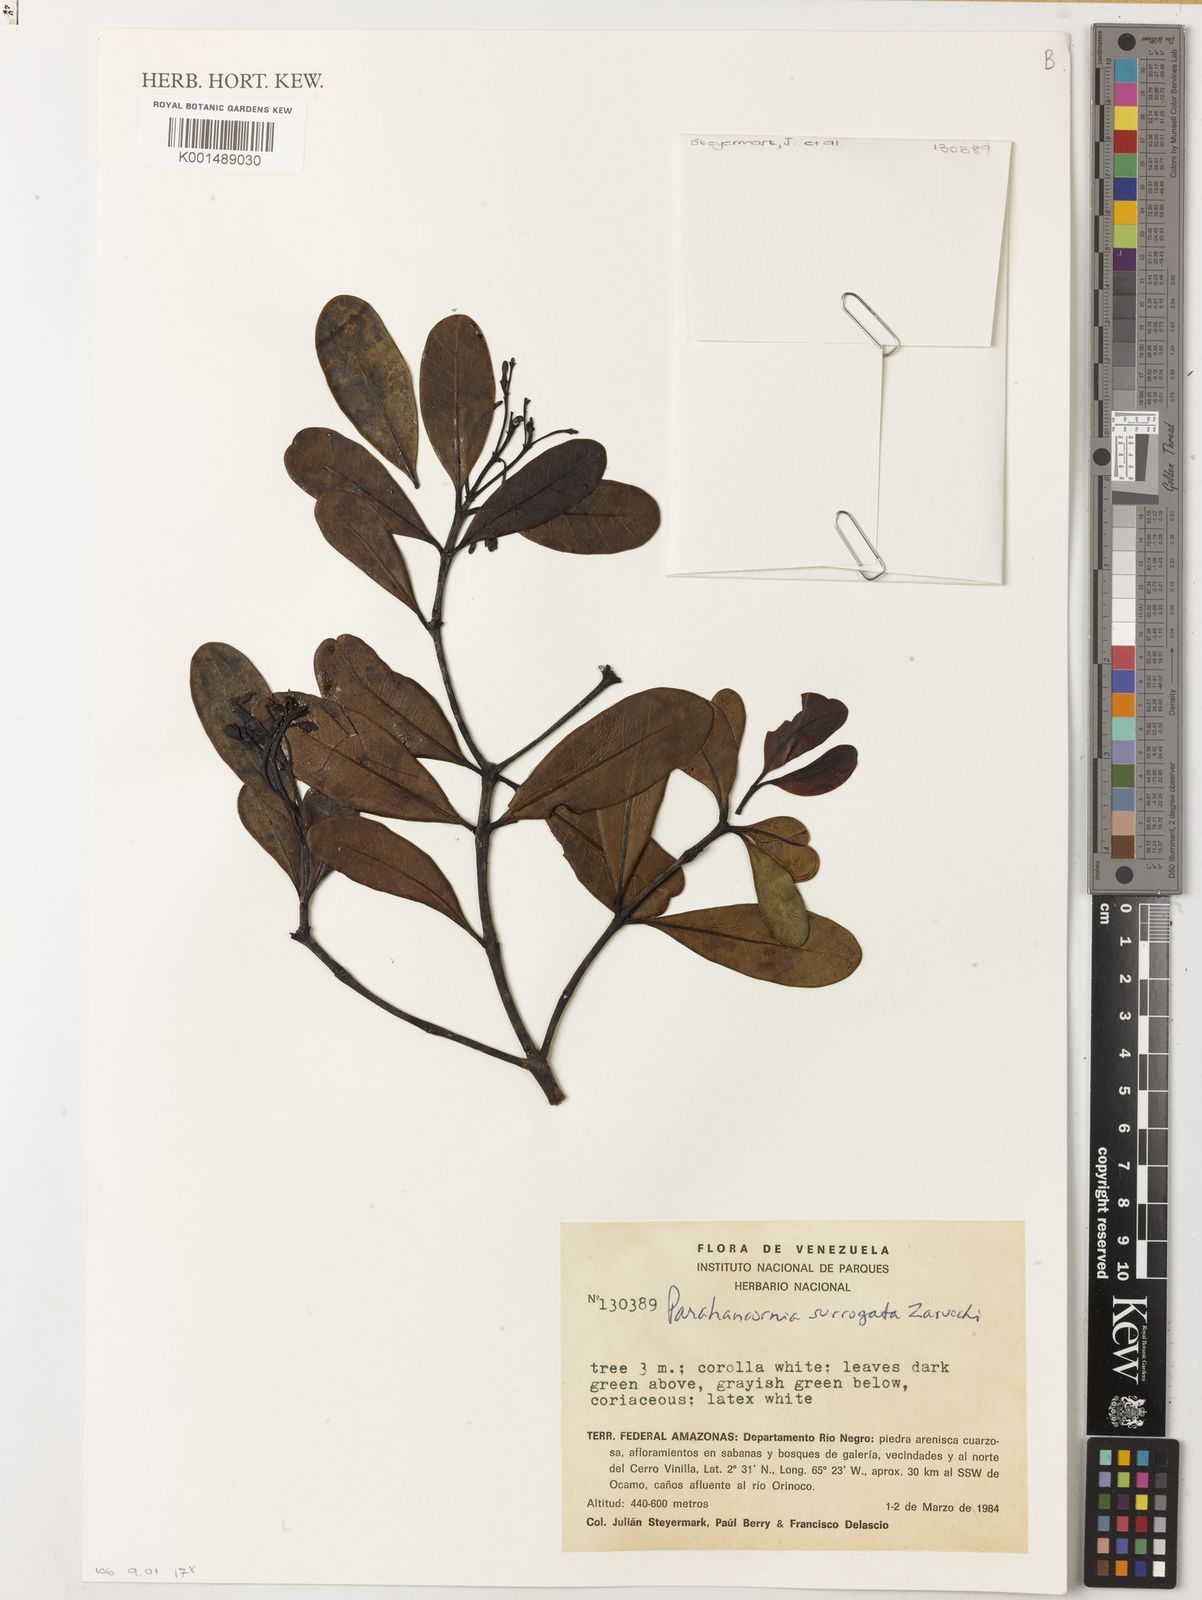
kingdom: Plantae
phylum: Tracheophyta
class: Magnoliopsida
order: Gentianales
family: Apocynaceae
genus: Parahancornia
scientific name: Parahancornia surrogata
